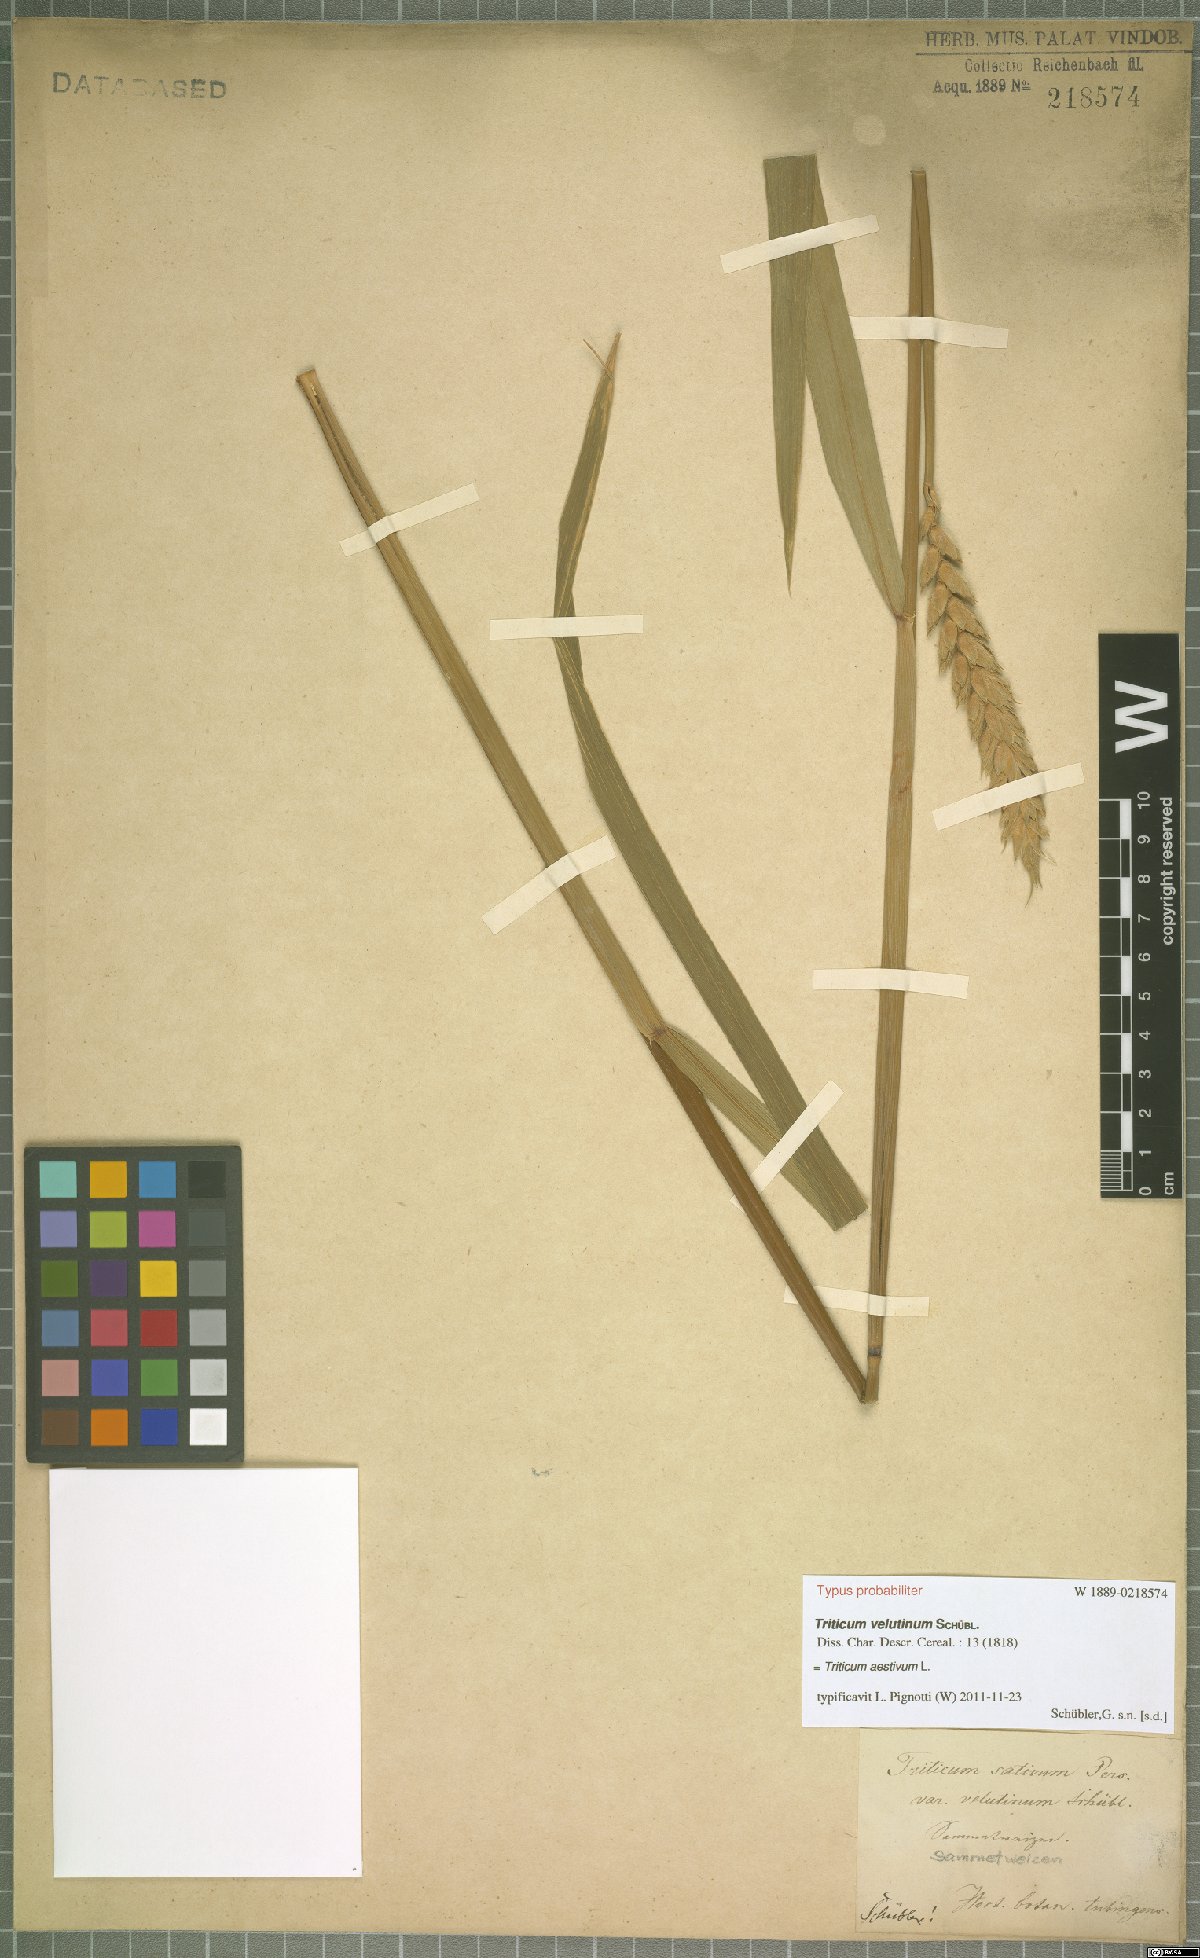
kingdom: Plantae
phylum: Tracheophyta
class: Liliopsida
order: Poales
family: Poaceae
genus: Triticum
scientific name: Triticum aestivum
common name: Common wheat
